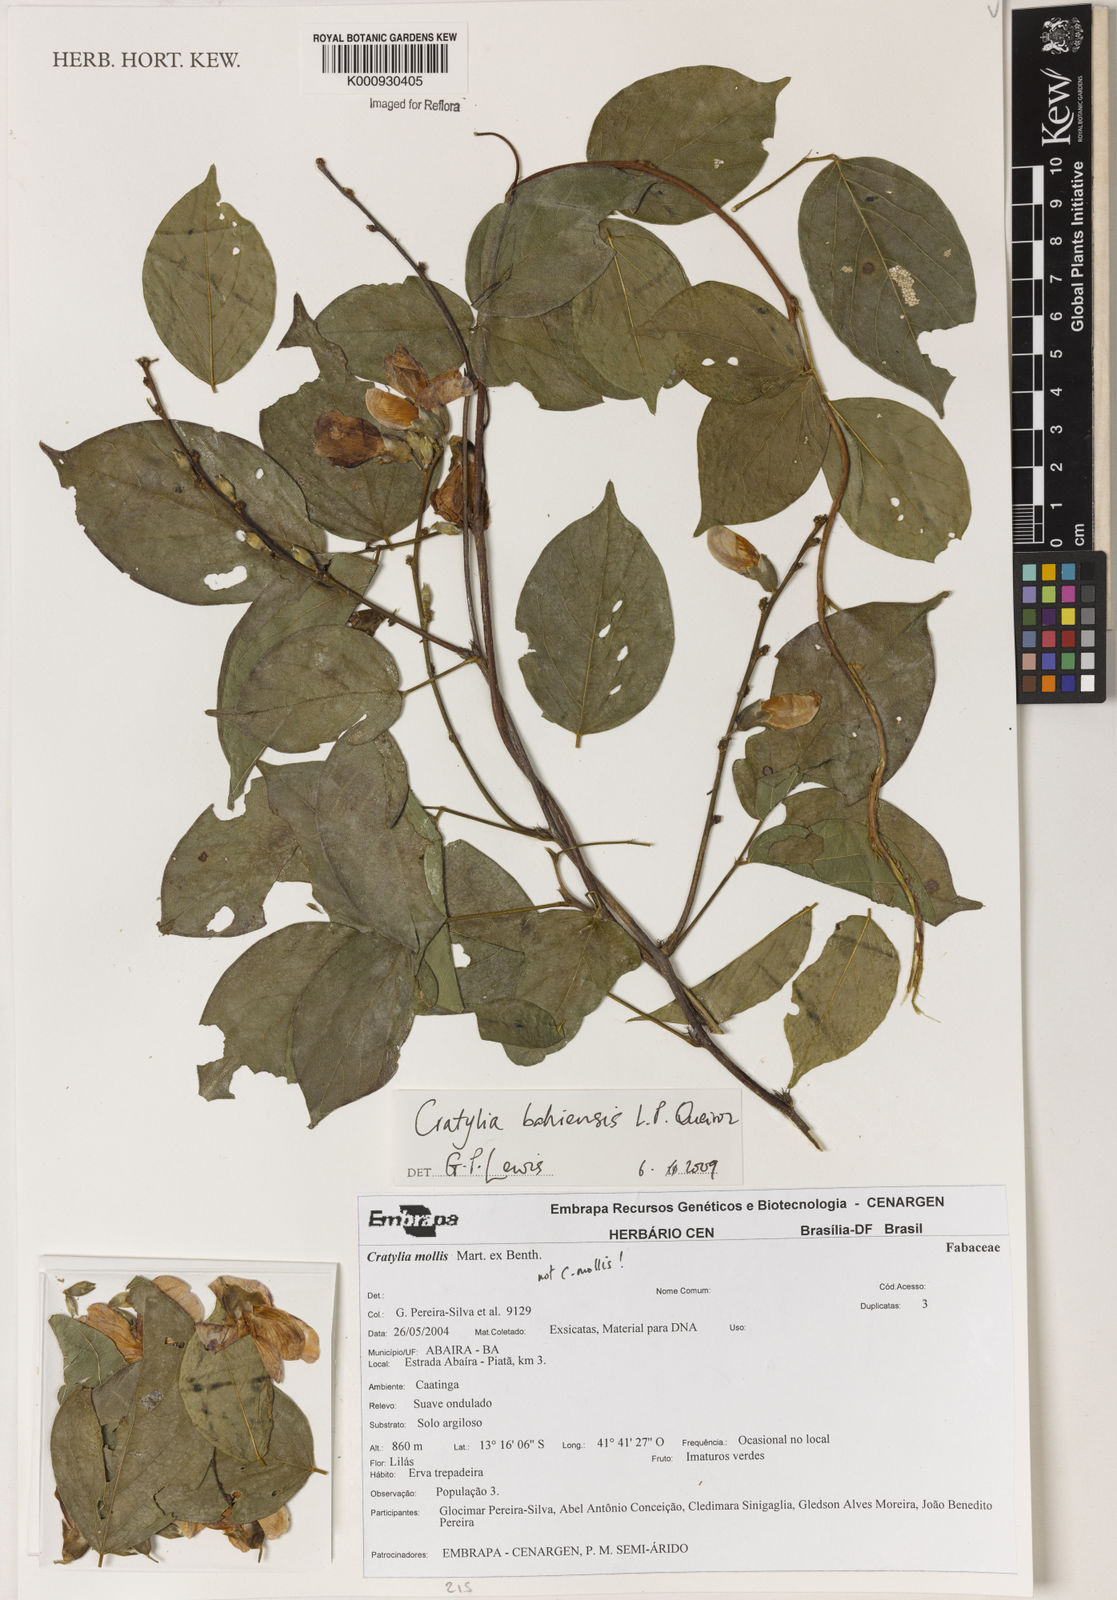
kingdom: Plantae
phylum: Tracheophyta
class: Magnoliopsida
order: Fabales
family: Fabaceae
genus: Cratylia
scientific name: Cratylia bahiensis
